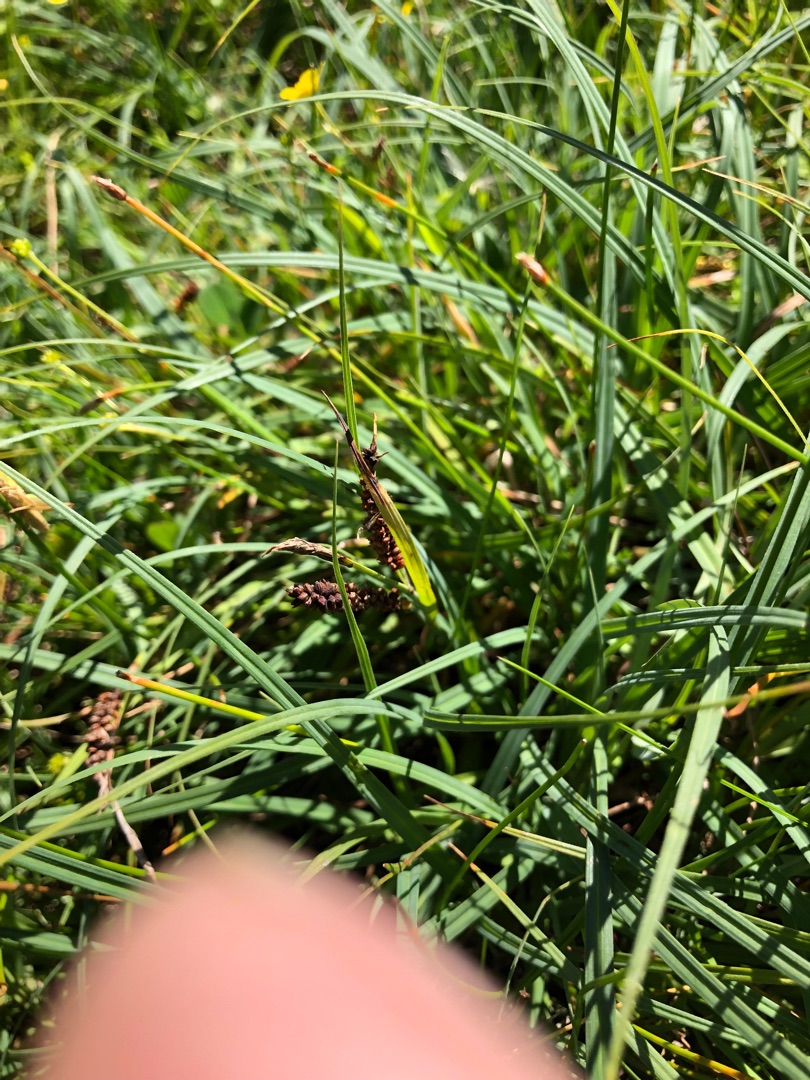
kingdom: Plantae
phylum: Tracheophyta
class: Liliopsida
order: Poales
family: Cyperaceae
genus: Carex
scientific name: Carex flacca
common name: Blågrøn star
